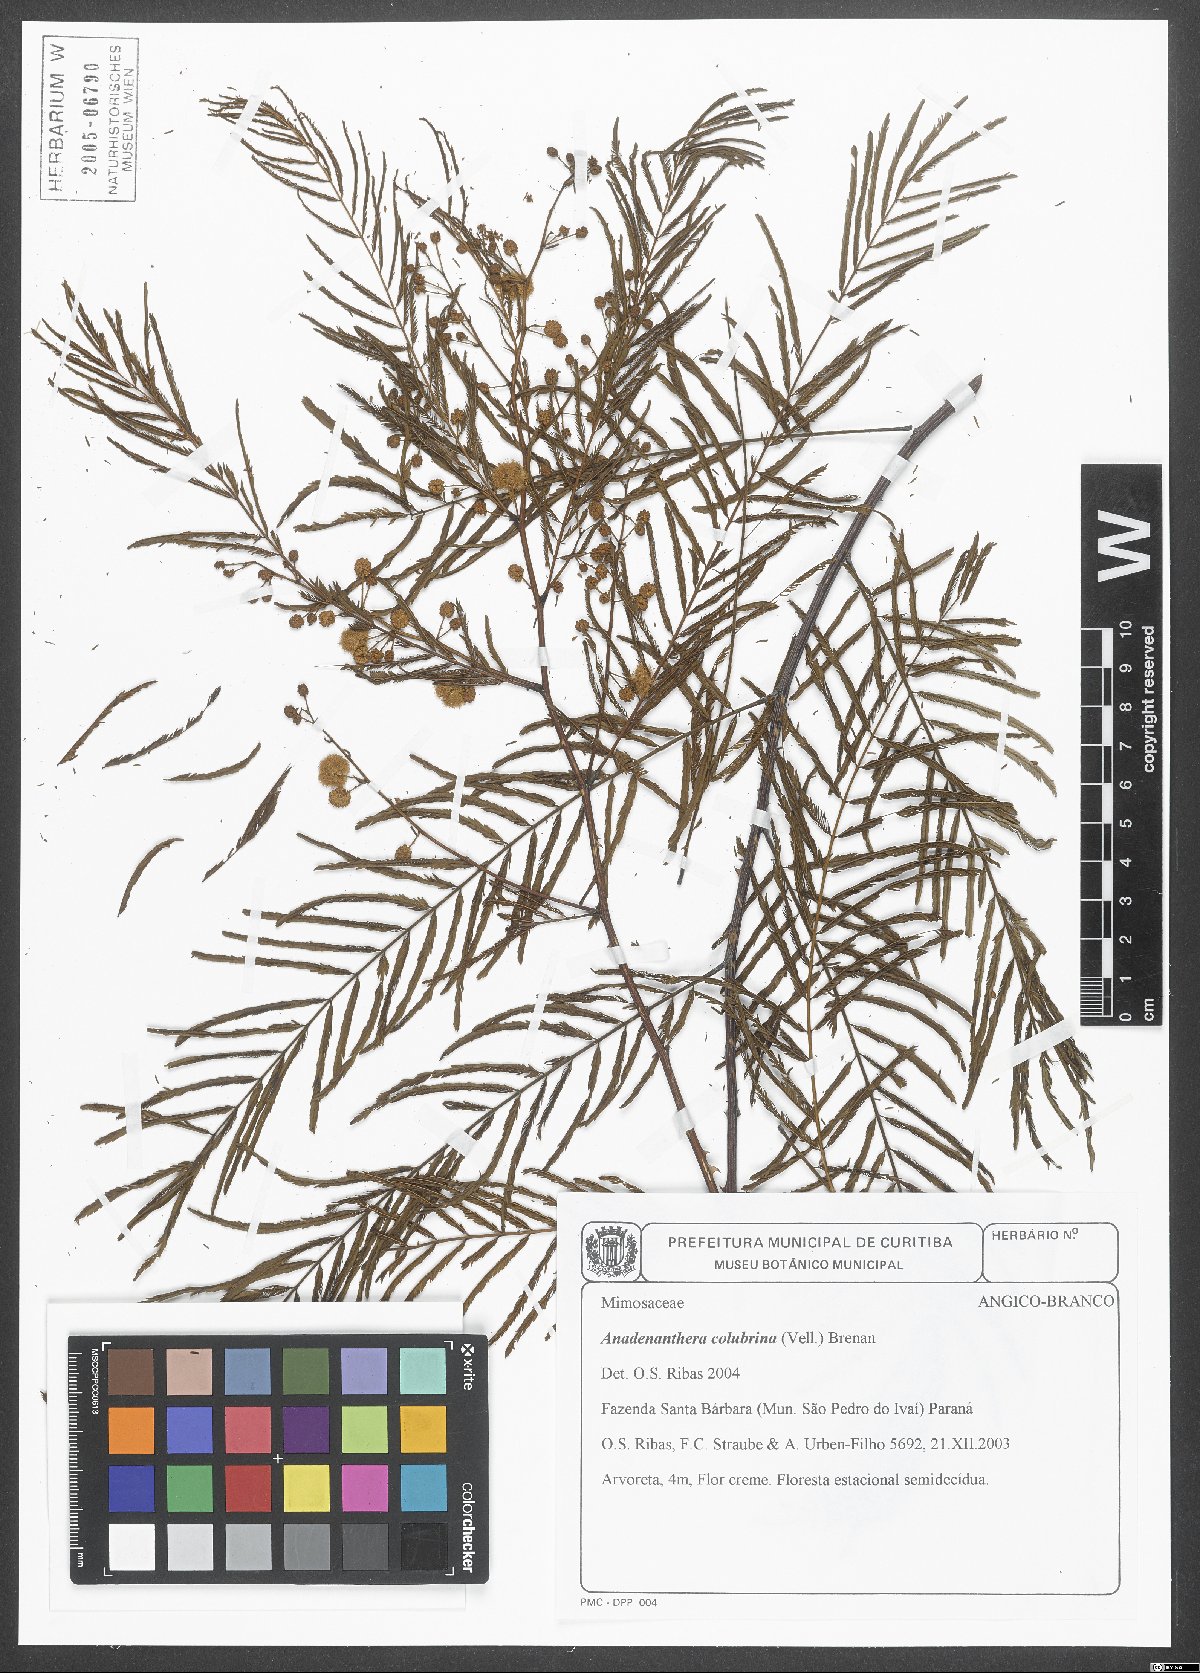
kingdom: Plantae
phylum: Tracheophyta
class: Magnoliopsida
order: Fabales
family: Fabaceae
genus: Anadenanthera
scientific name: Anadenanthera colubrina
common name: Curupay
